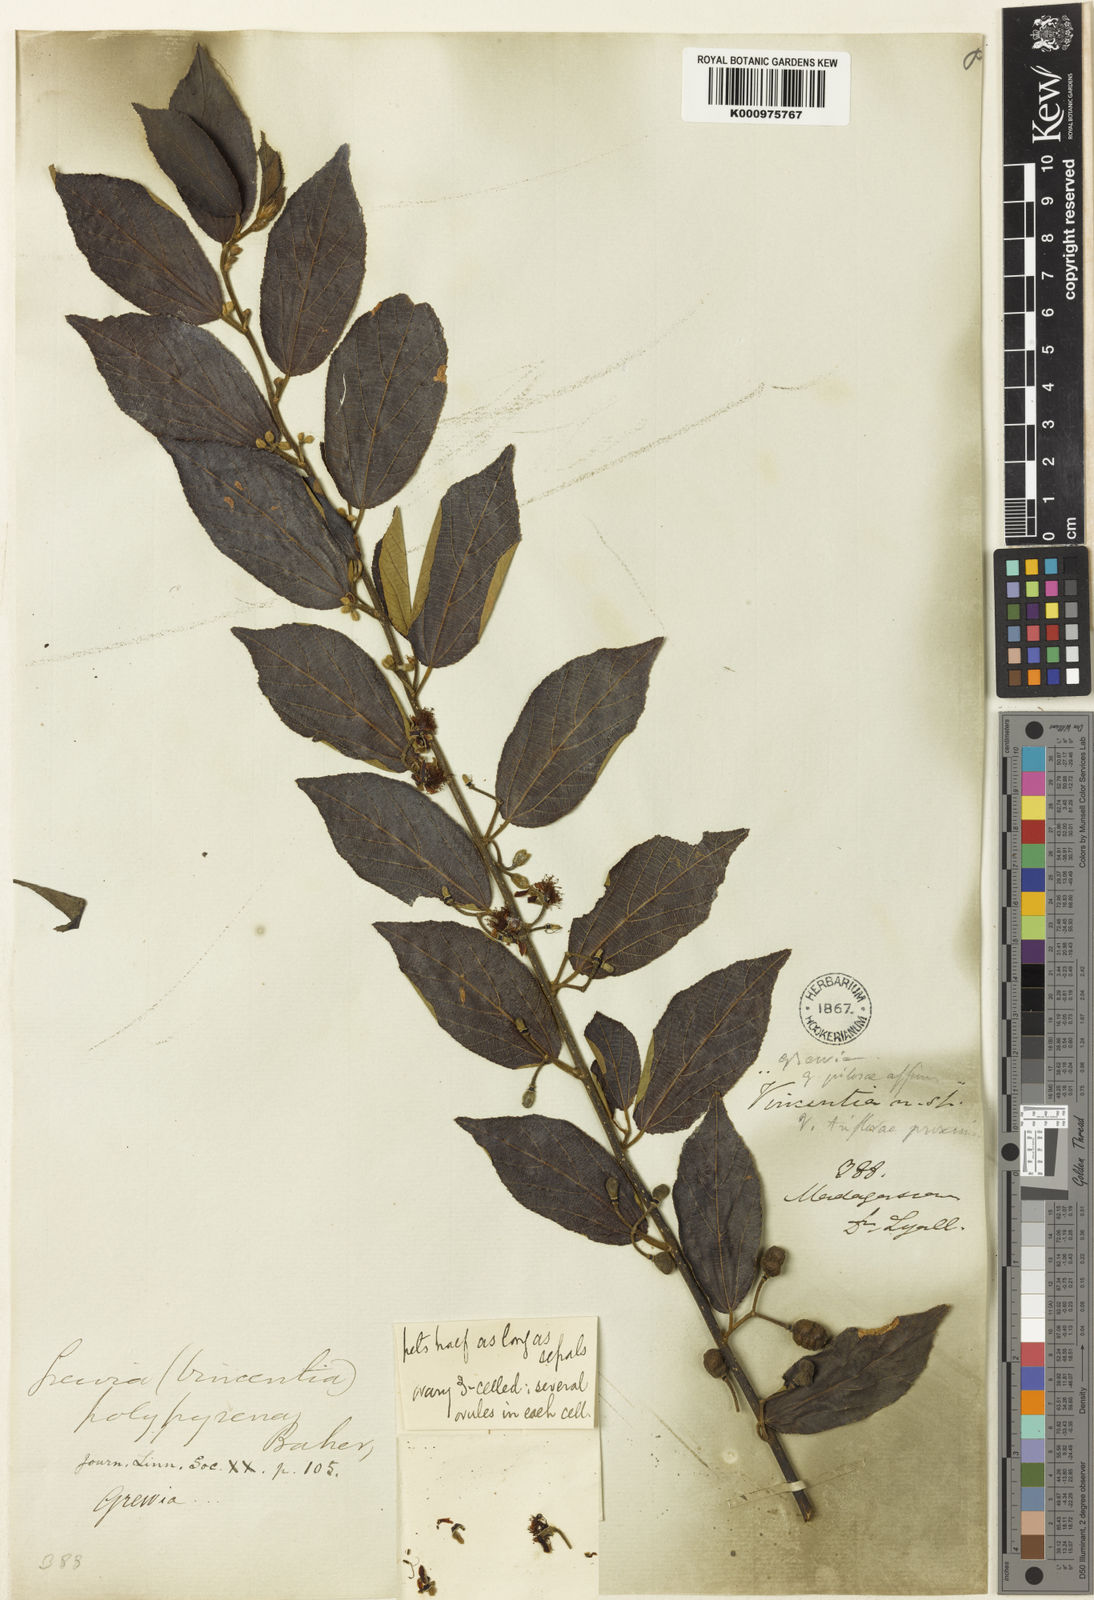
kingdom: Plantae
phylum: Tracheophyta
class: Magnoliopsida
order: Malvales
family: Malvaceae
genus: Grewia
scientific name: Grewia rhomboides
